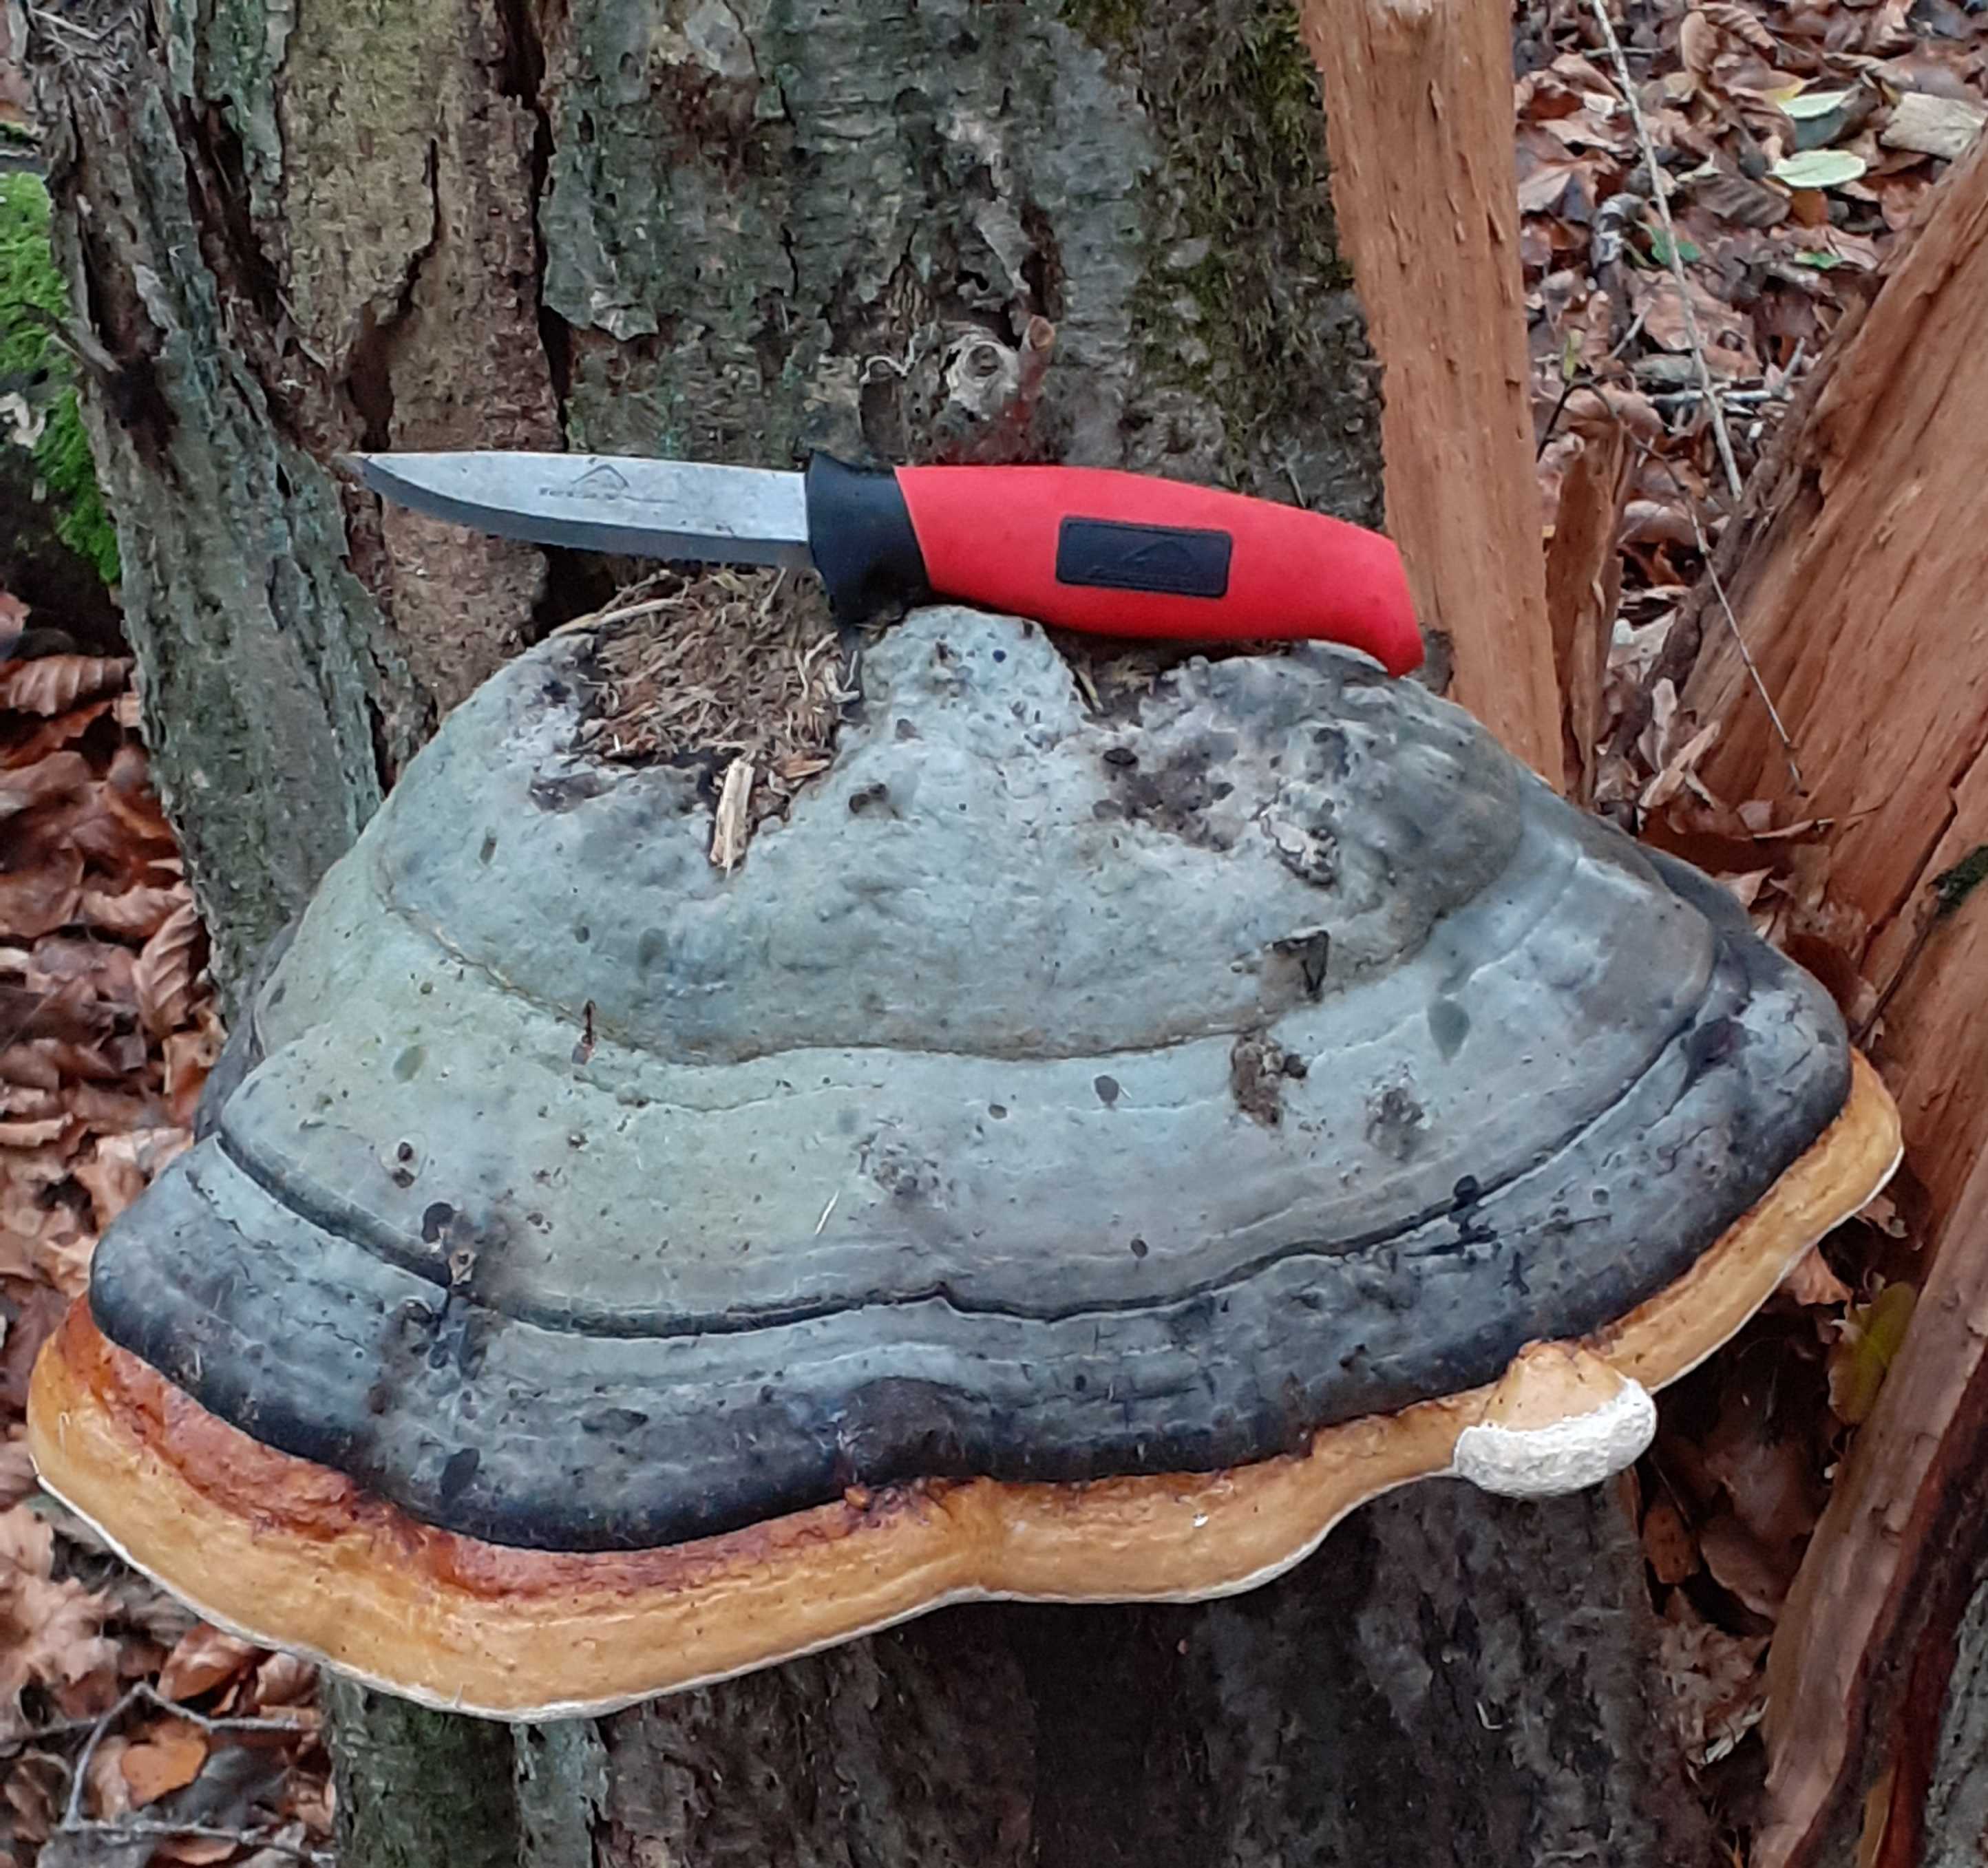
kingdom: Fungi
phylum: Basidiomycota
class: Agaricomycetes
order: Polyporales
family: Fomitopsidaceae
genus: Fomitopsis
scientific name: Fomitopsis pinicola
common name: randbæltet hovporesvamp
